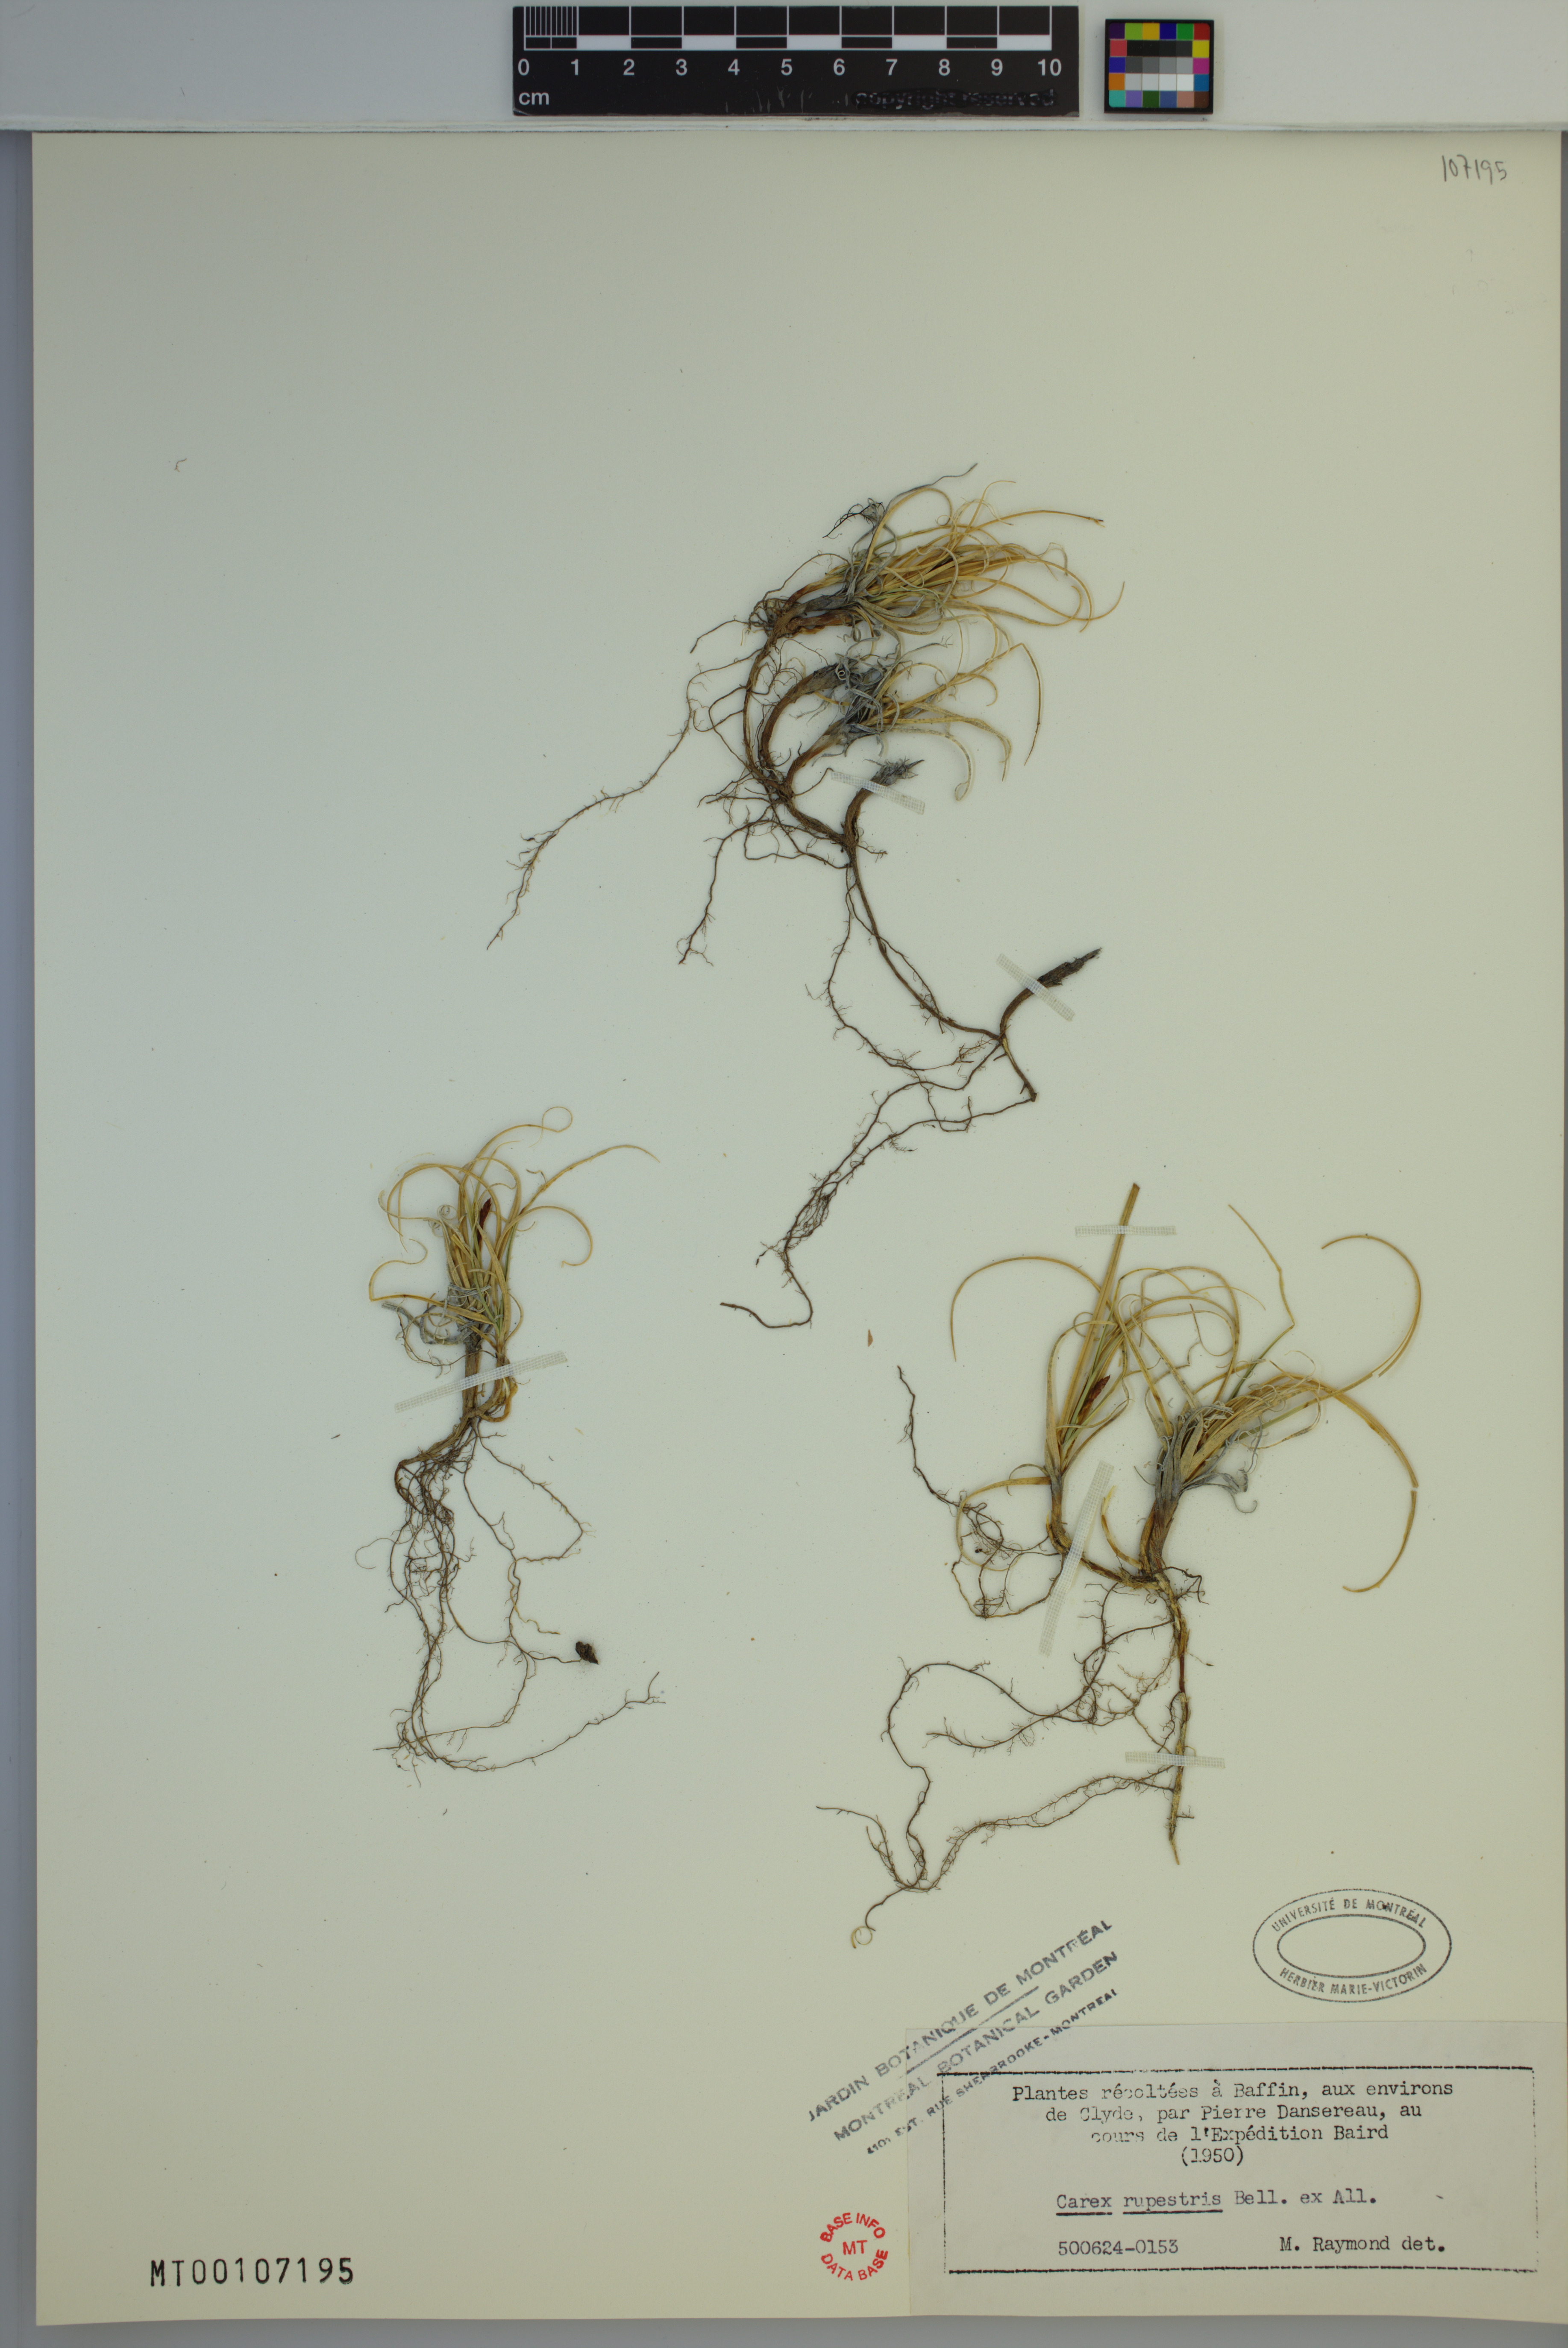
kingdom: Plantae
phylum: Tracheophyta
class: Liliopsida
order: Poales
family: Cyperaceae
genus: Carex
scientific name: Carex rupestris
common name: Rock sedge
